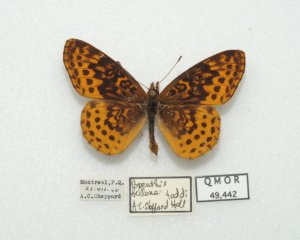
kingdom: Animalia
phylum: Arthropoda
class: Insecta
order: Lepidoptera
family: Nymphalidae
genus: Clossiana
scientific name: Clossiana toddi
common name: Meadow Fritillary
